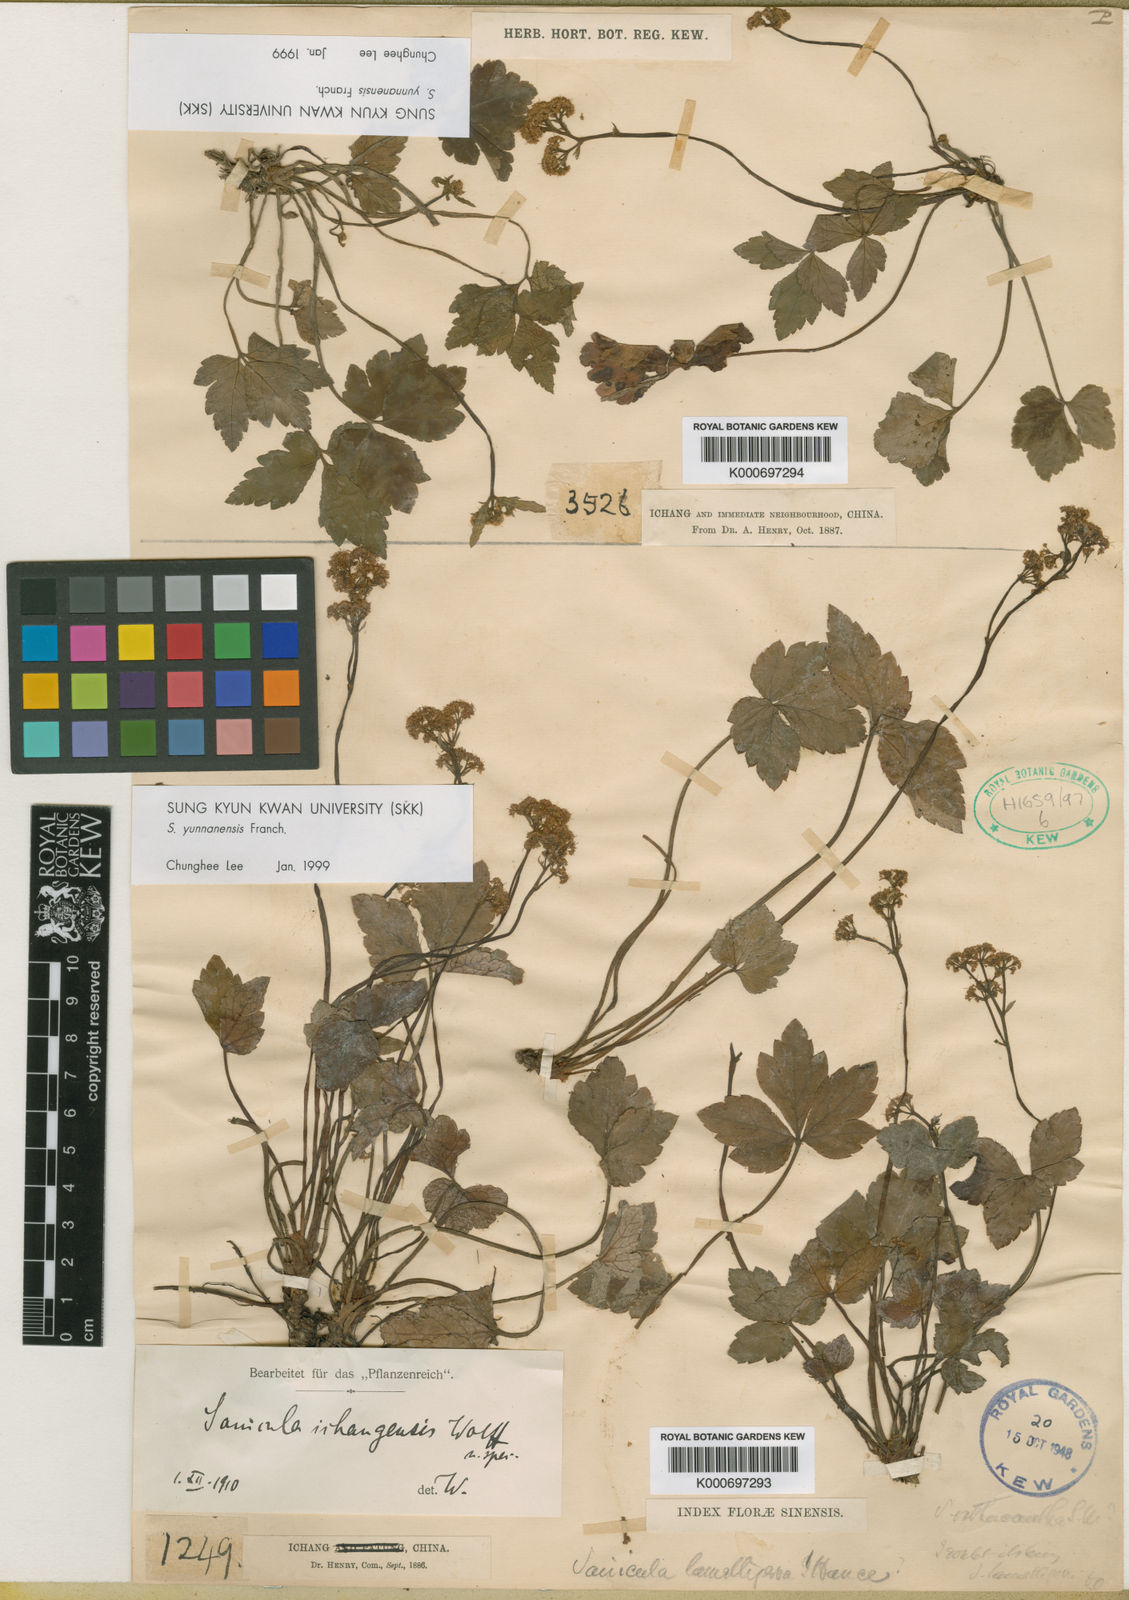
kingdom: Plantae
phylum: Tracheophyta
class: Magnoliopsida
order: Apiales
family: Apiaceae
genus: Sanicula
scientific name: Sanicula lamelligera
